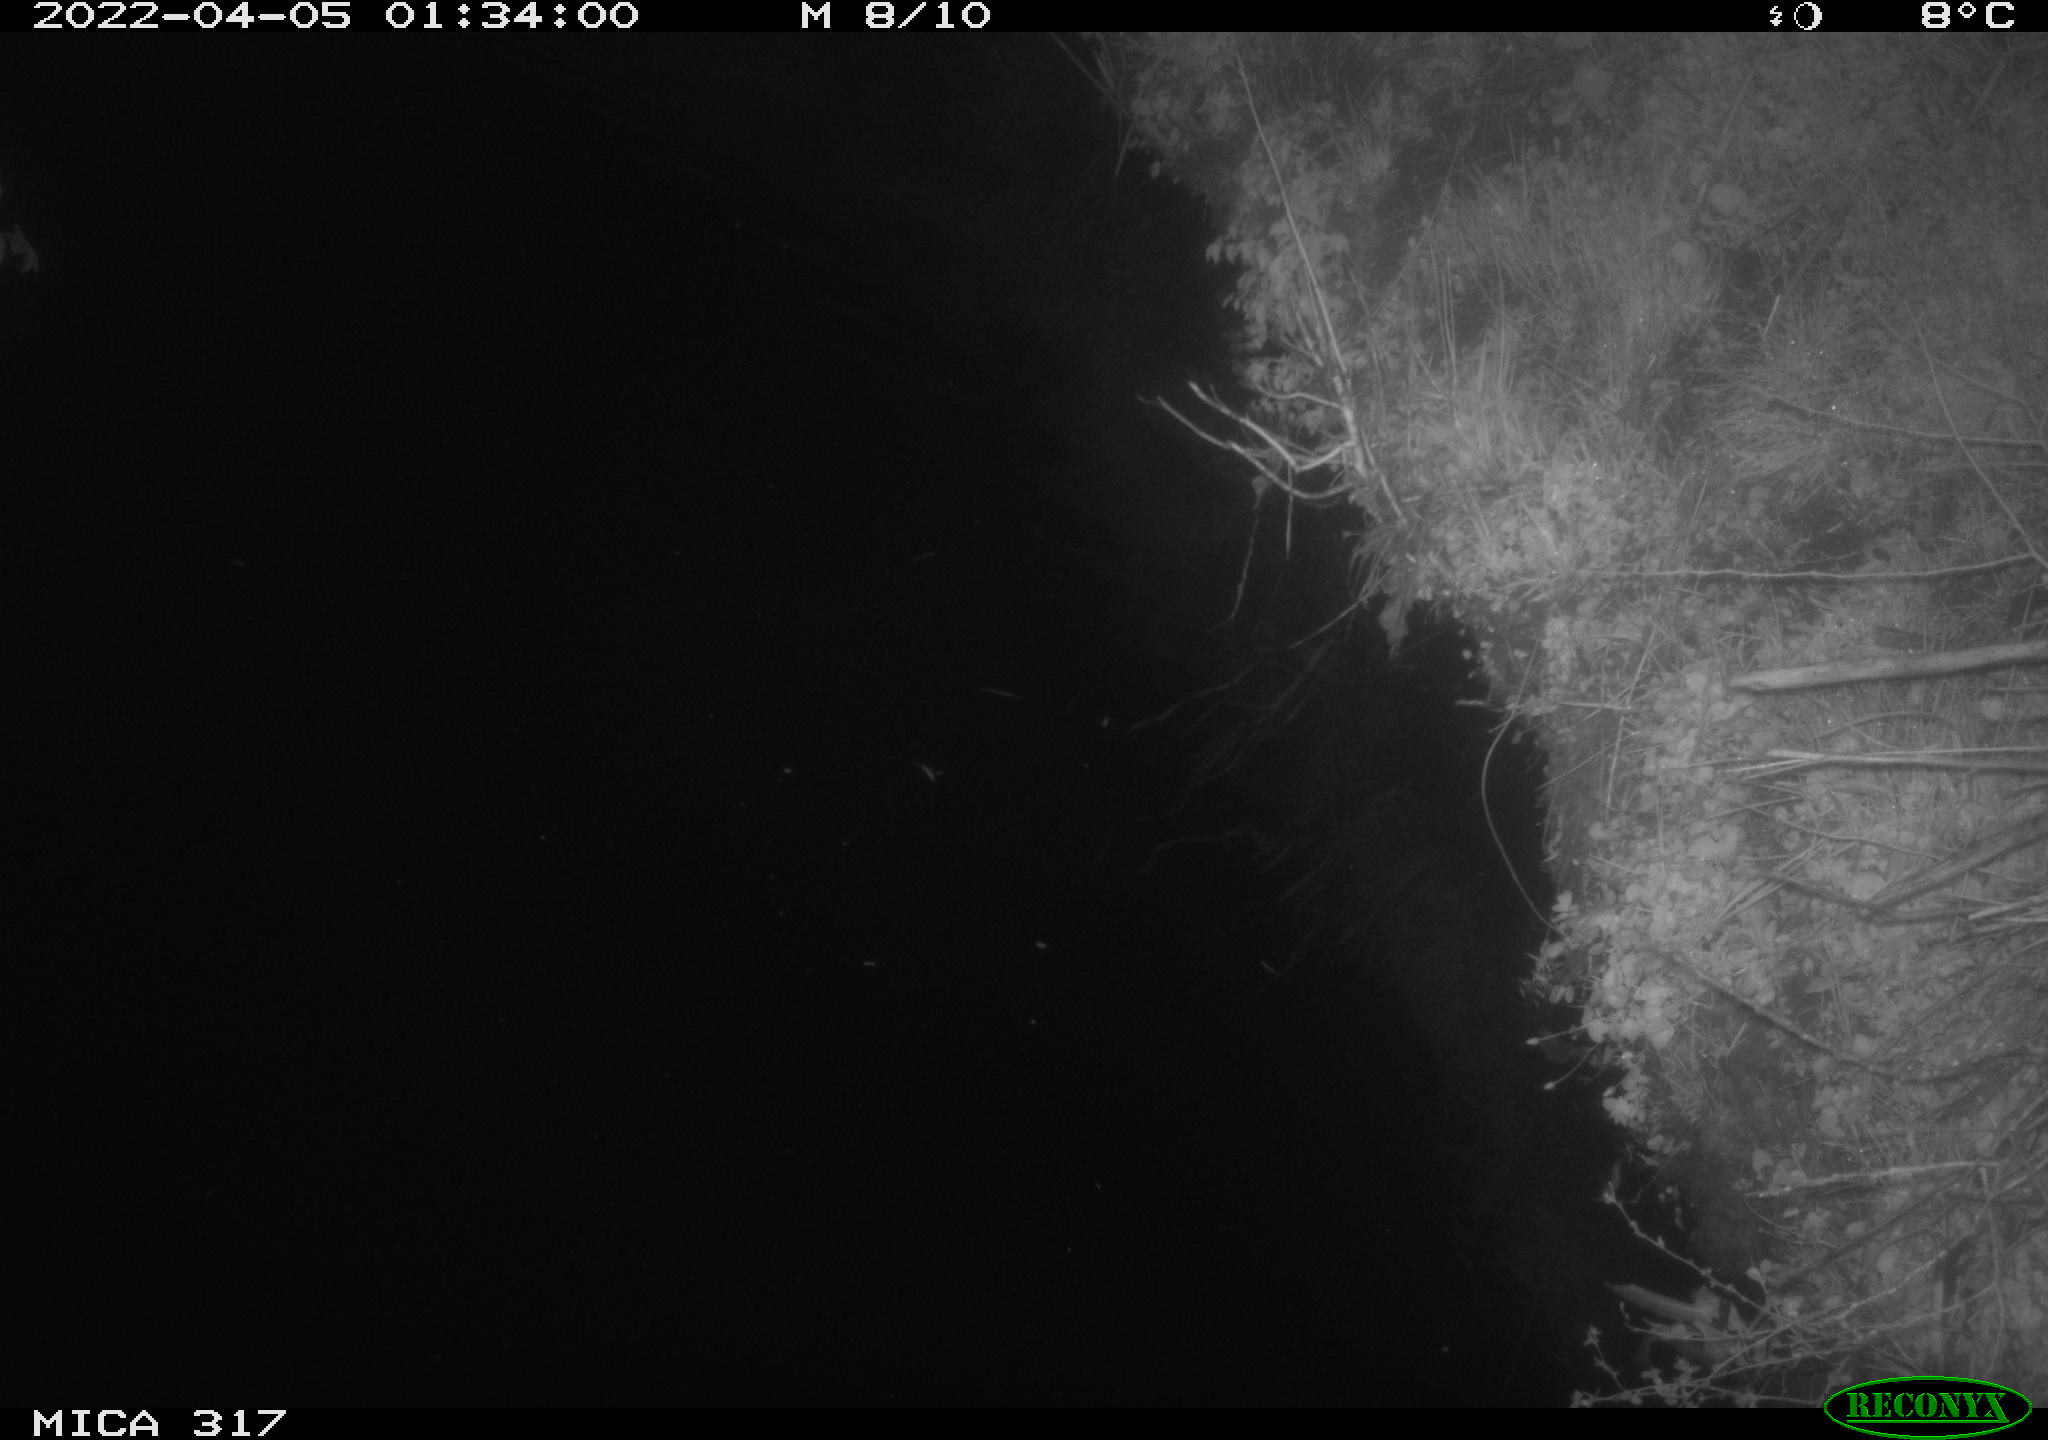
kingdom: Animalia
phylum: Chordata
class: Aves
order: Anseriformes
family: Anatidae
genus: Anas
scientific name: Anas platyrhynchos
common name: Mallard
